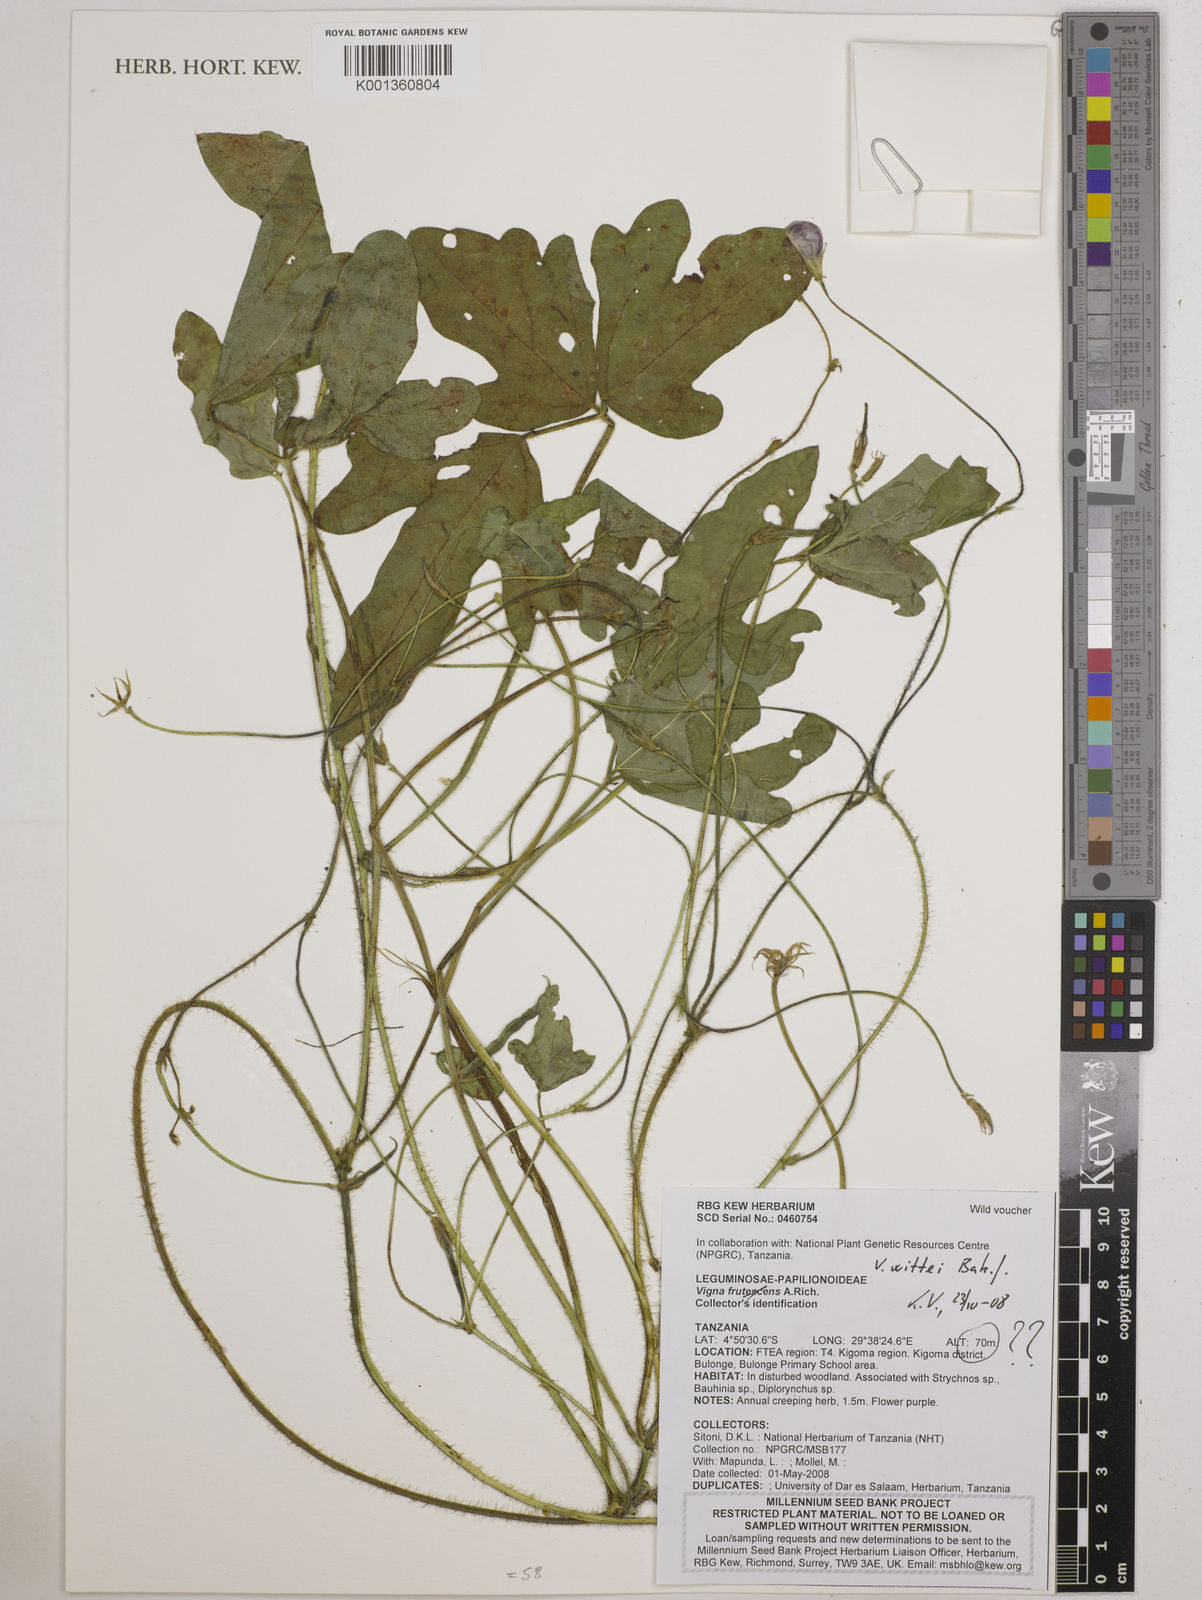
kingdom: Plantae
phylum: Tracheophyta
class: Magnoliopsida
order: Fabales
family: Fabaceae
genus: Vigna
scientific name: Vigna wittei
